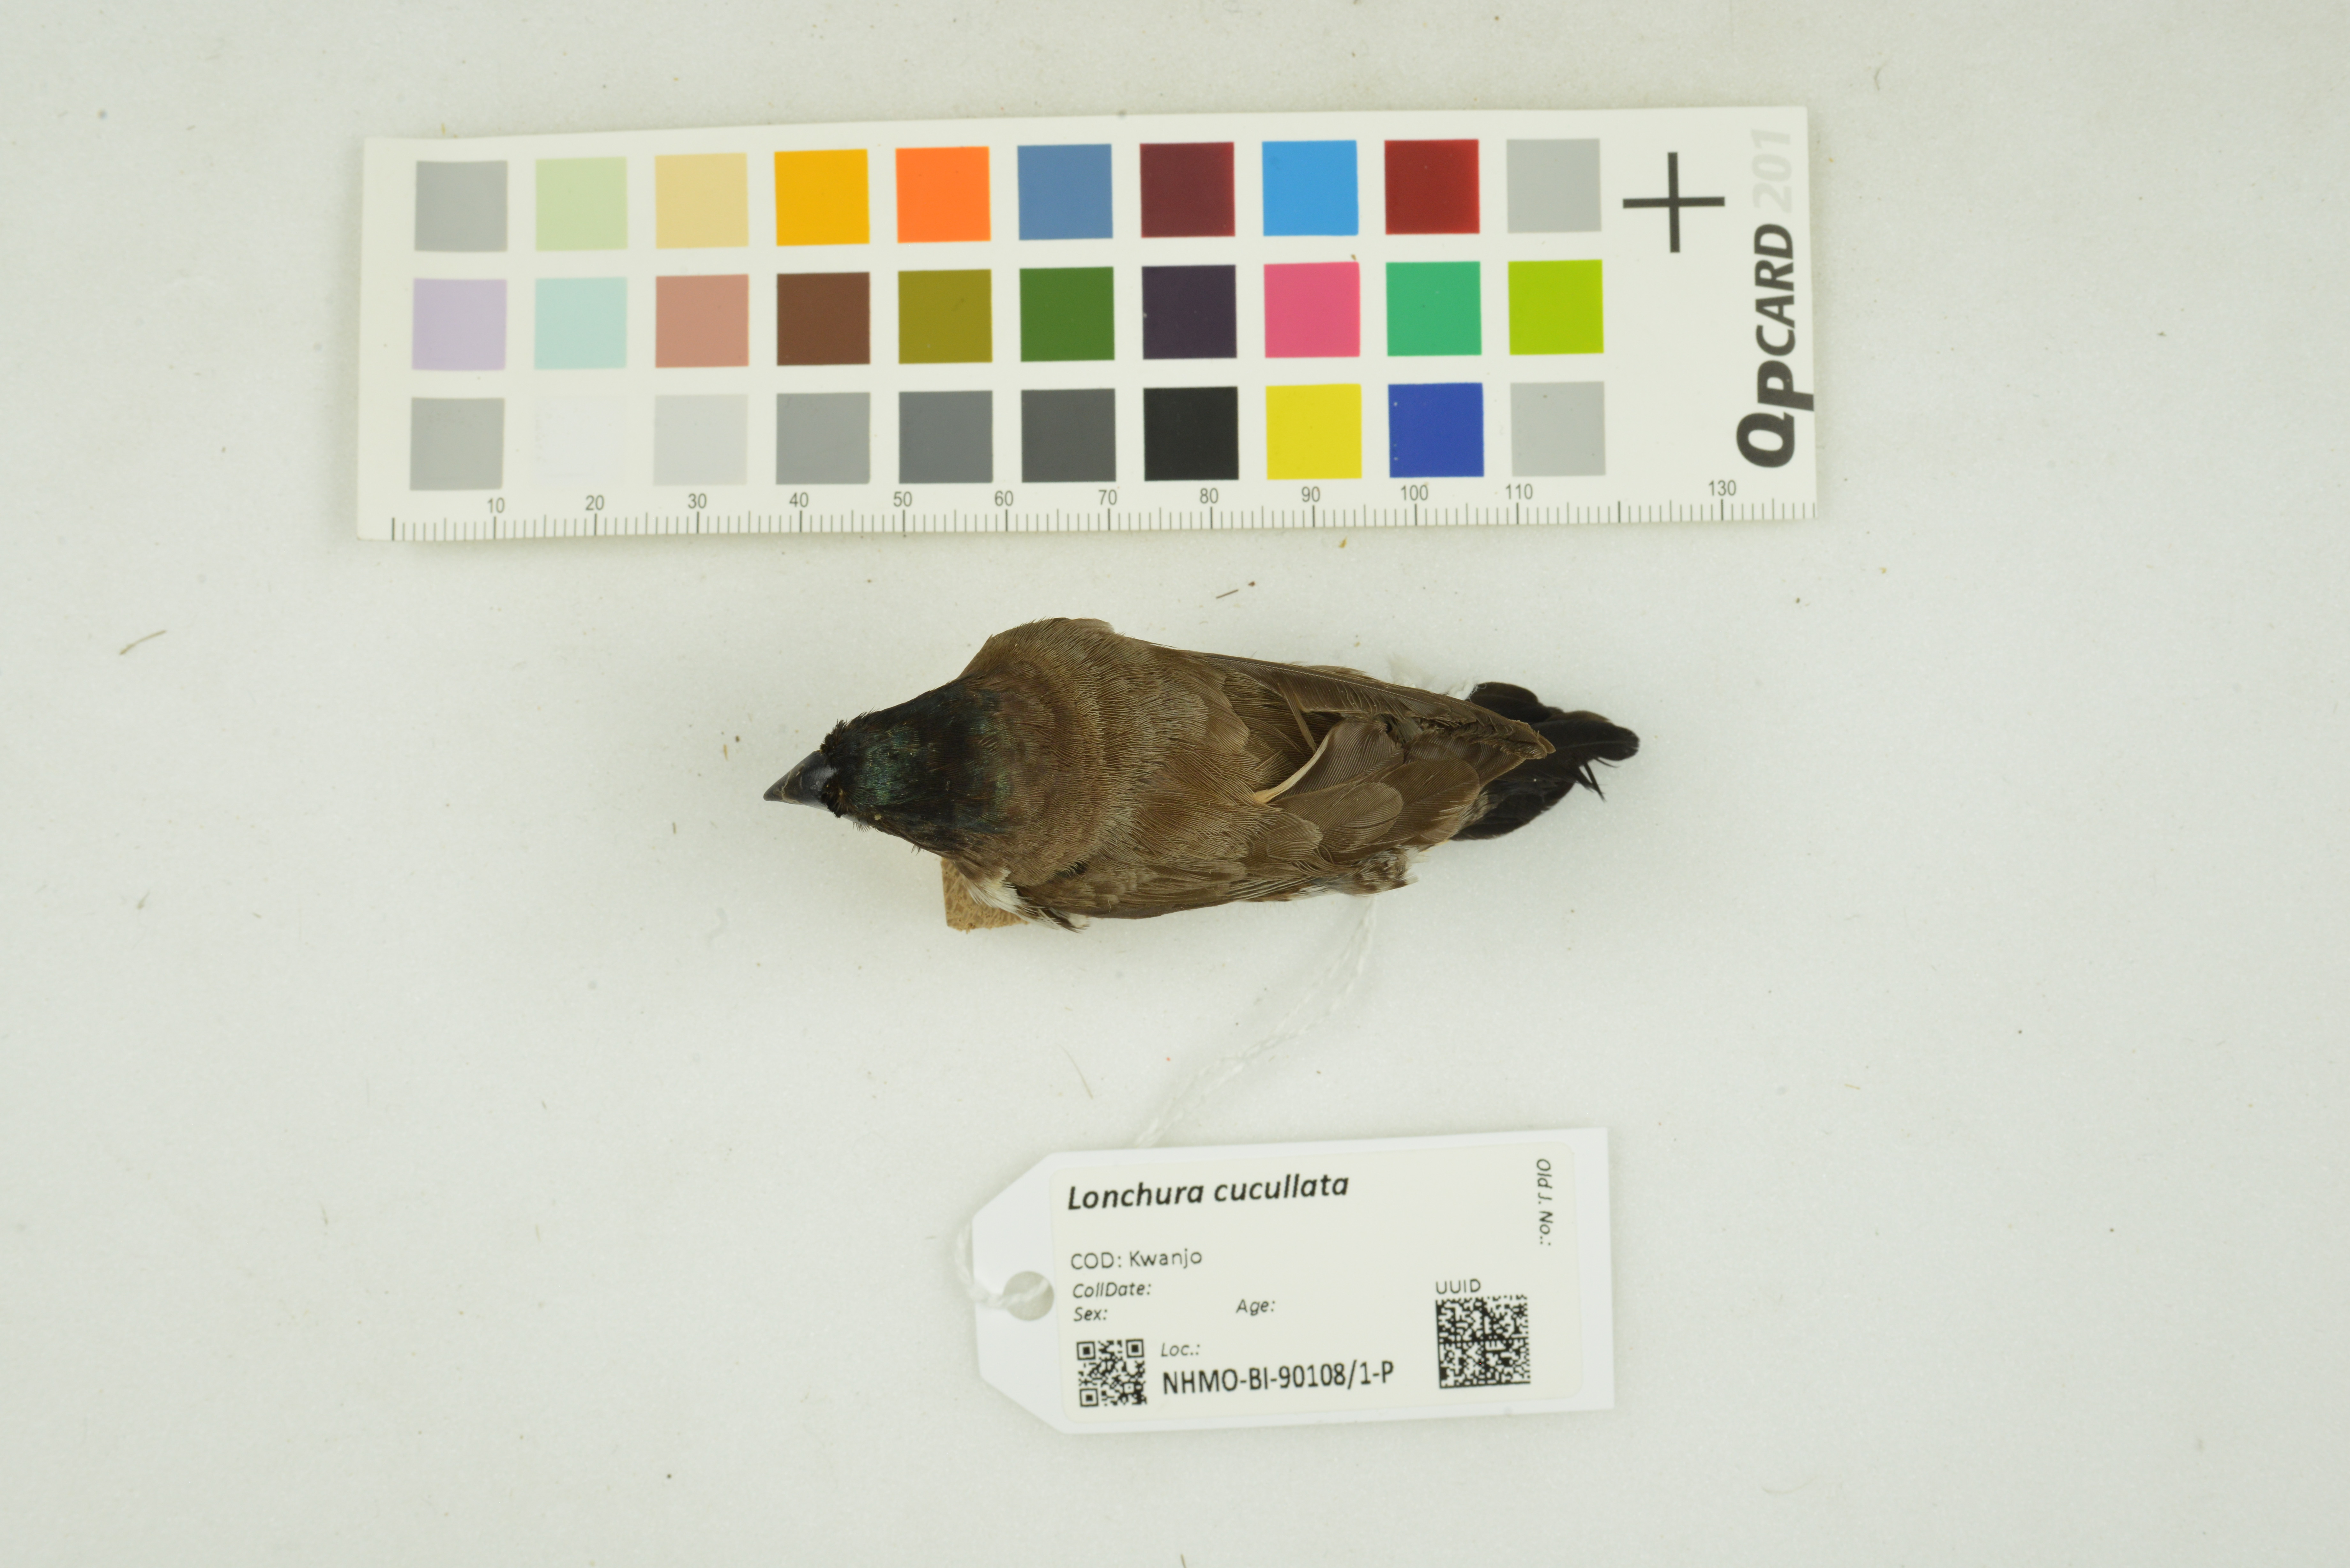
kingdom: Animalia
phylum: Chordata
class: Aves
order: Passeriformes
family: Estrildidae
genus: Lonchura
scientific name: Lonchura cucullata
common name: Bronze mannikin
